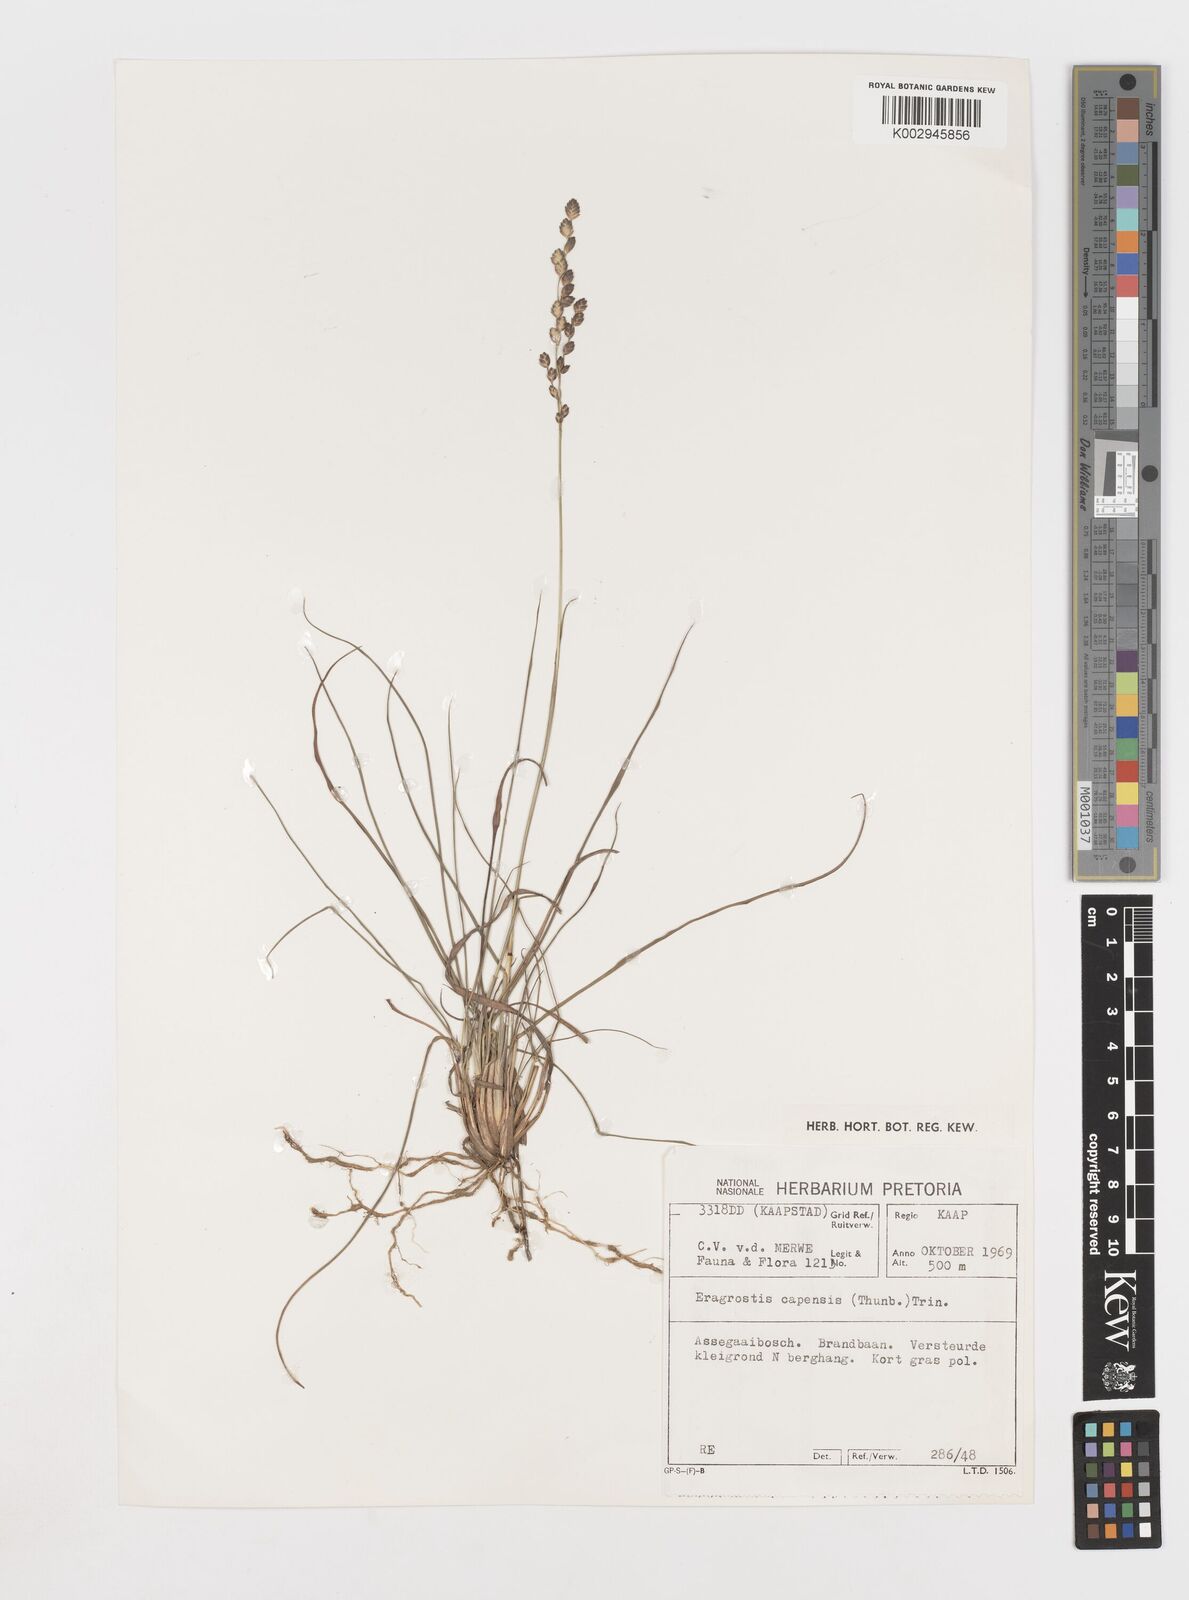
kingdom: Plantae
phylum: Tracheophyta
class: Liliopsida
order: Poales
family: Poaceae
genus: Eragrostis
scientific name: Eragrostis capensis
